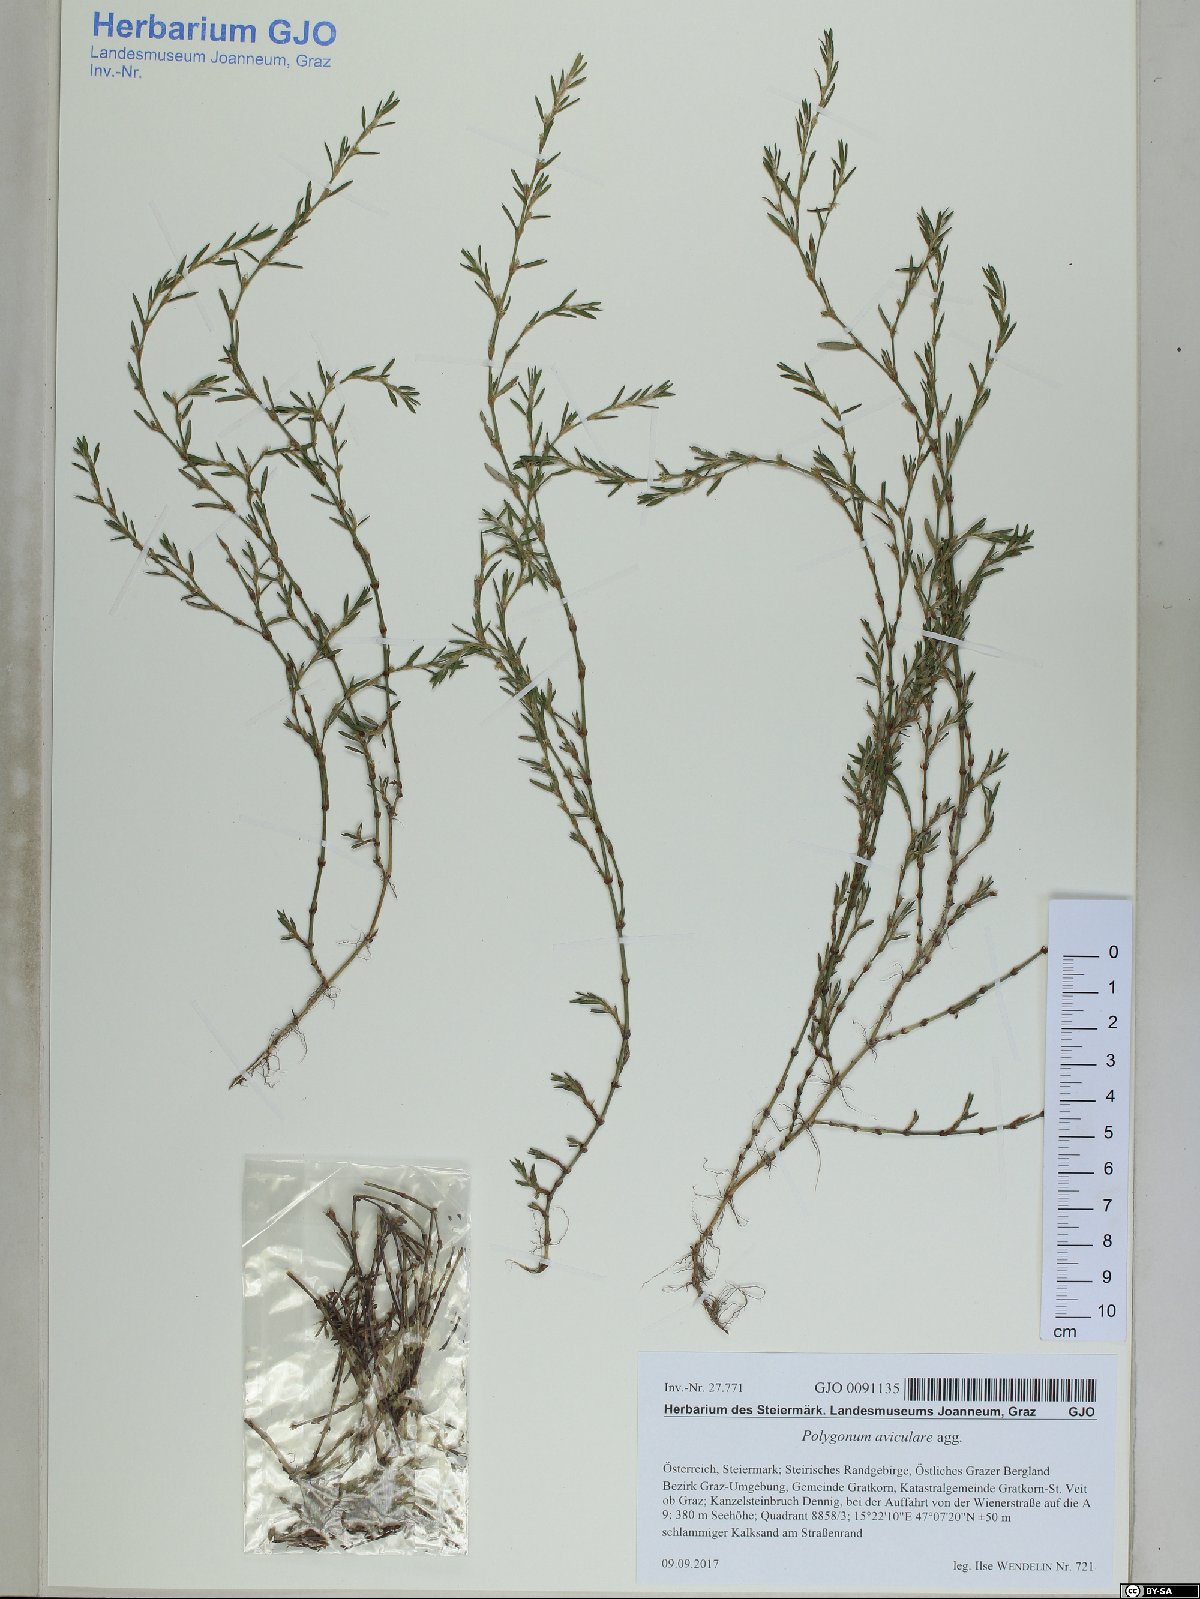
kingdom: Plantae
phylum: Tracheophyta
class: Magnoliopsida
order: Caryophyllales
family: Polygonaceae
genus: Polygonum
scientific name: Polygonum aviculare
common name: Prostrate knotweed
